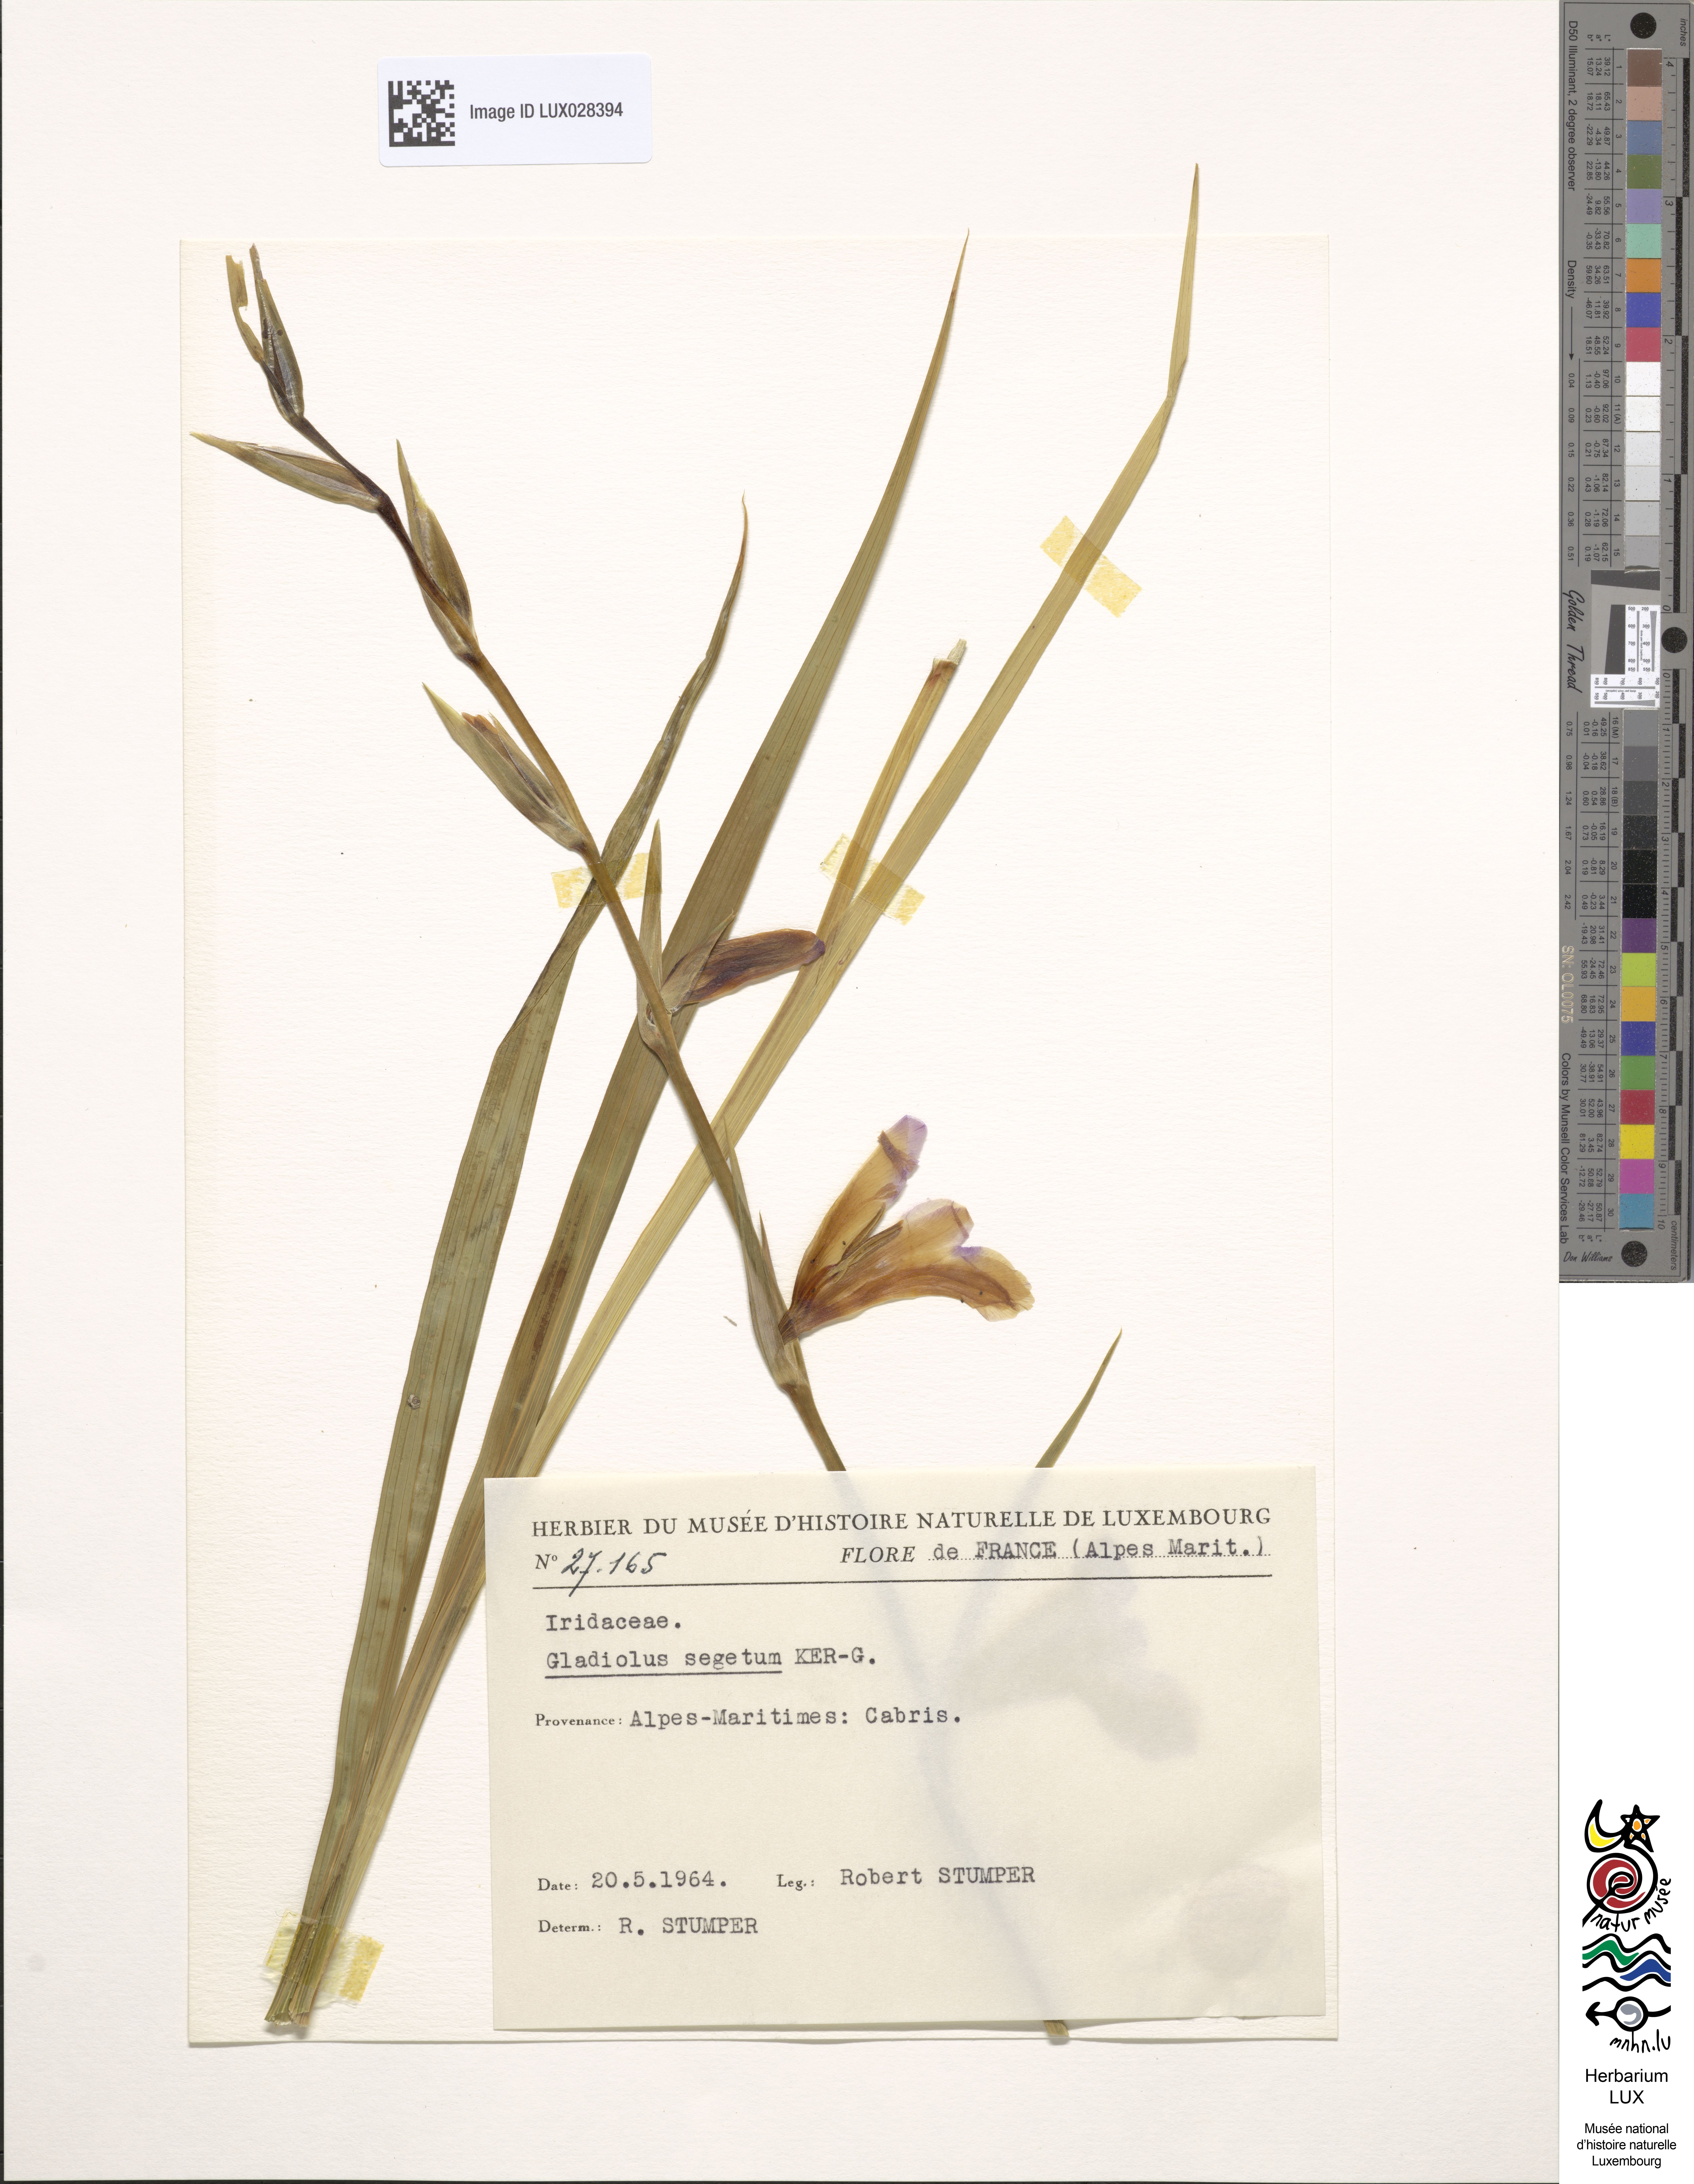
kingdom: Plantae
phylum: Tracheophyta
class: Liliopsida
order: Asparagales
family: Iridaceae
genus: Gladiolus
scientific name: Gladiolus italicus
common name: Field gladiolus
